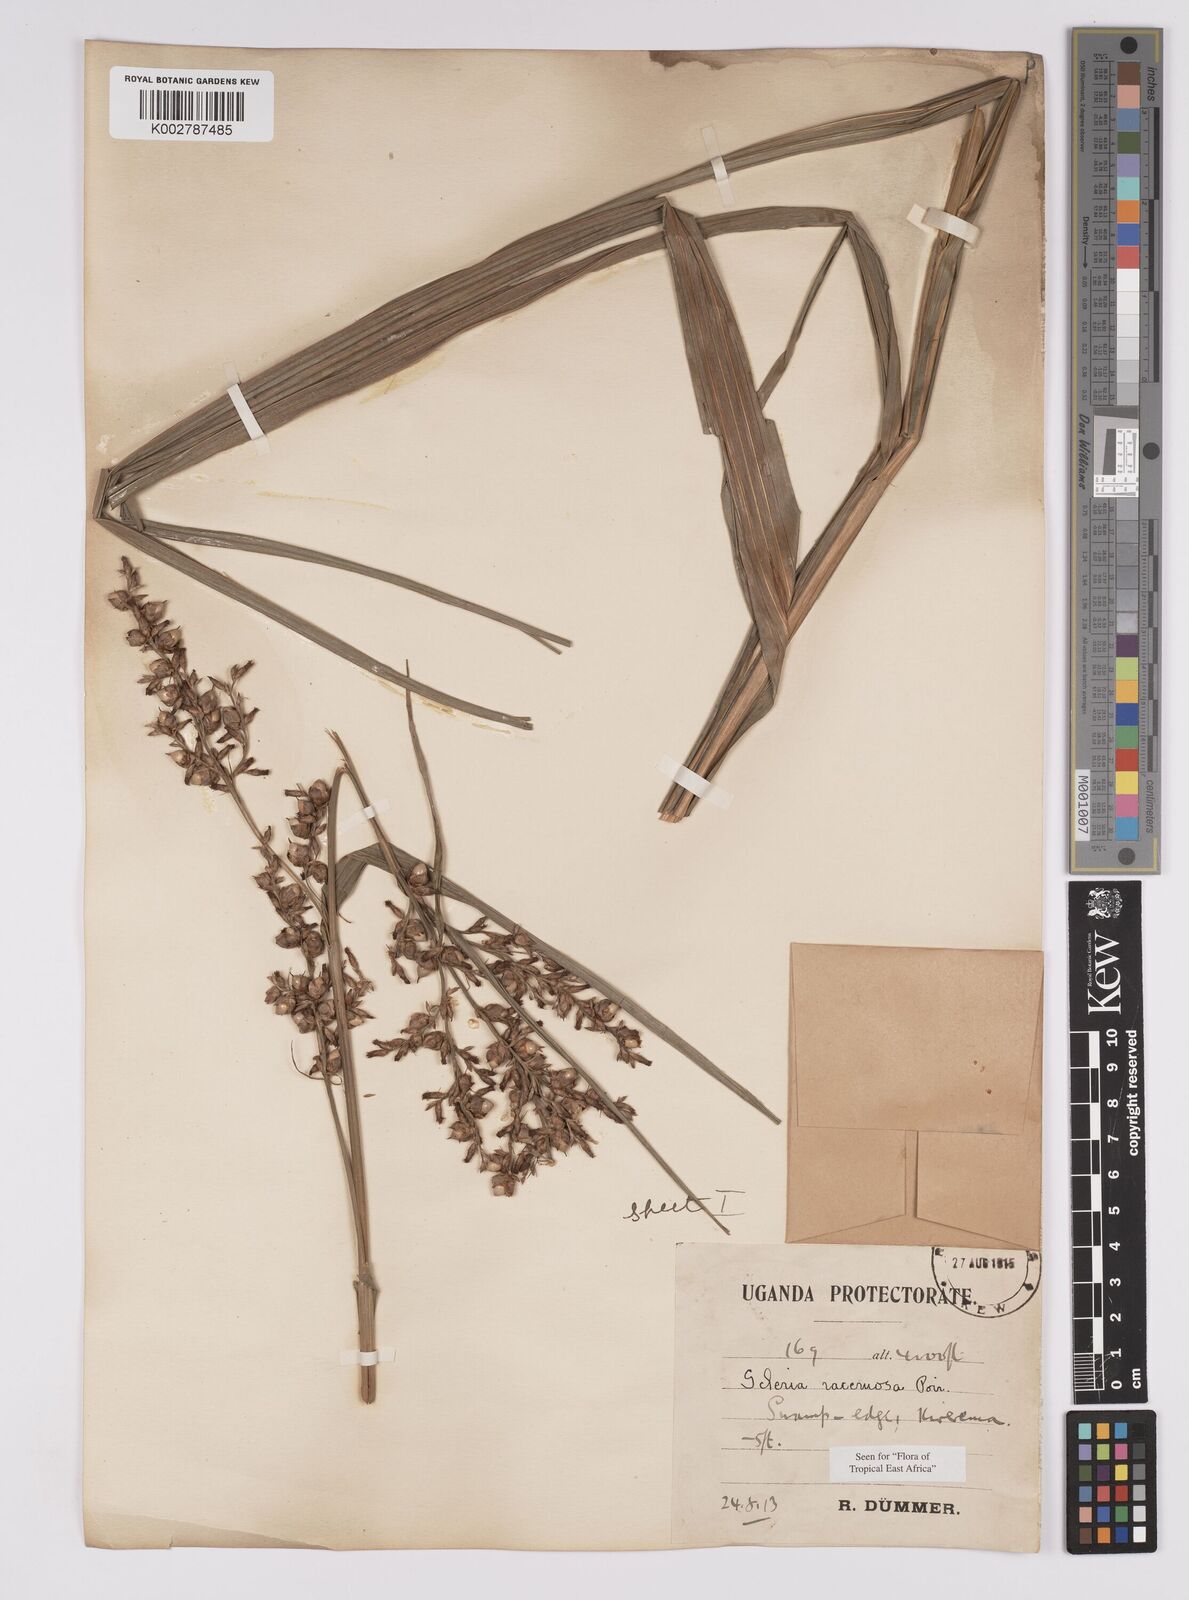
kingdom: Plantae
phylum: Tracheophyta
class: Liliopsida
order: Poales
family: Cyperaceae
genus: Scleria
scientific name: Scleria racemosa
